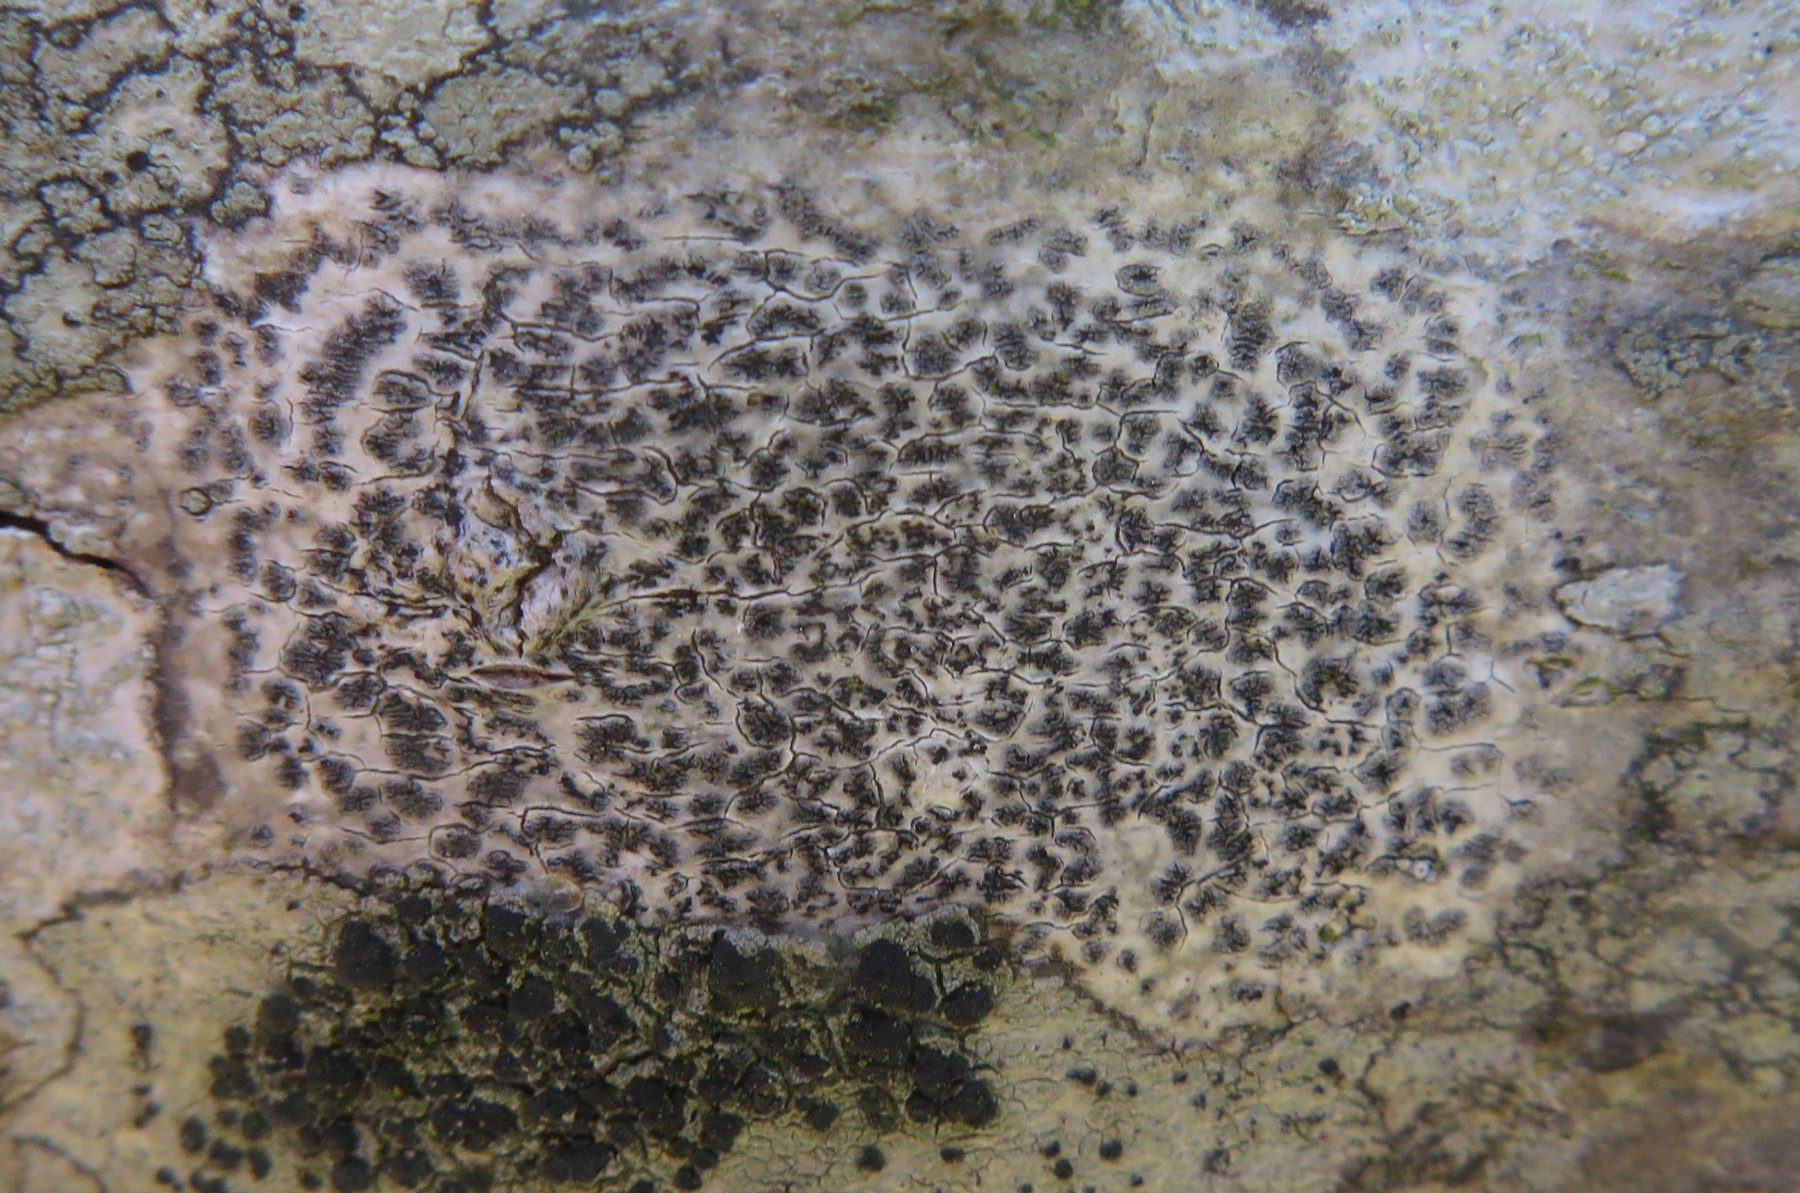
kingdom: Fungi
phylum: Ascomycota
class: Arthoniomycetes
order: Arthoniales
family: Arthoniaceae
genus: Arthonia
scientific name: Arthonia radiata
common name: stjerne-pletlav
